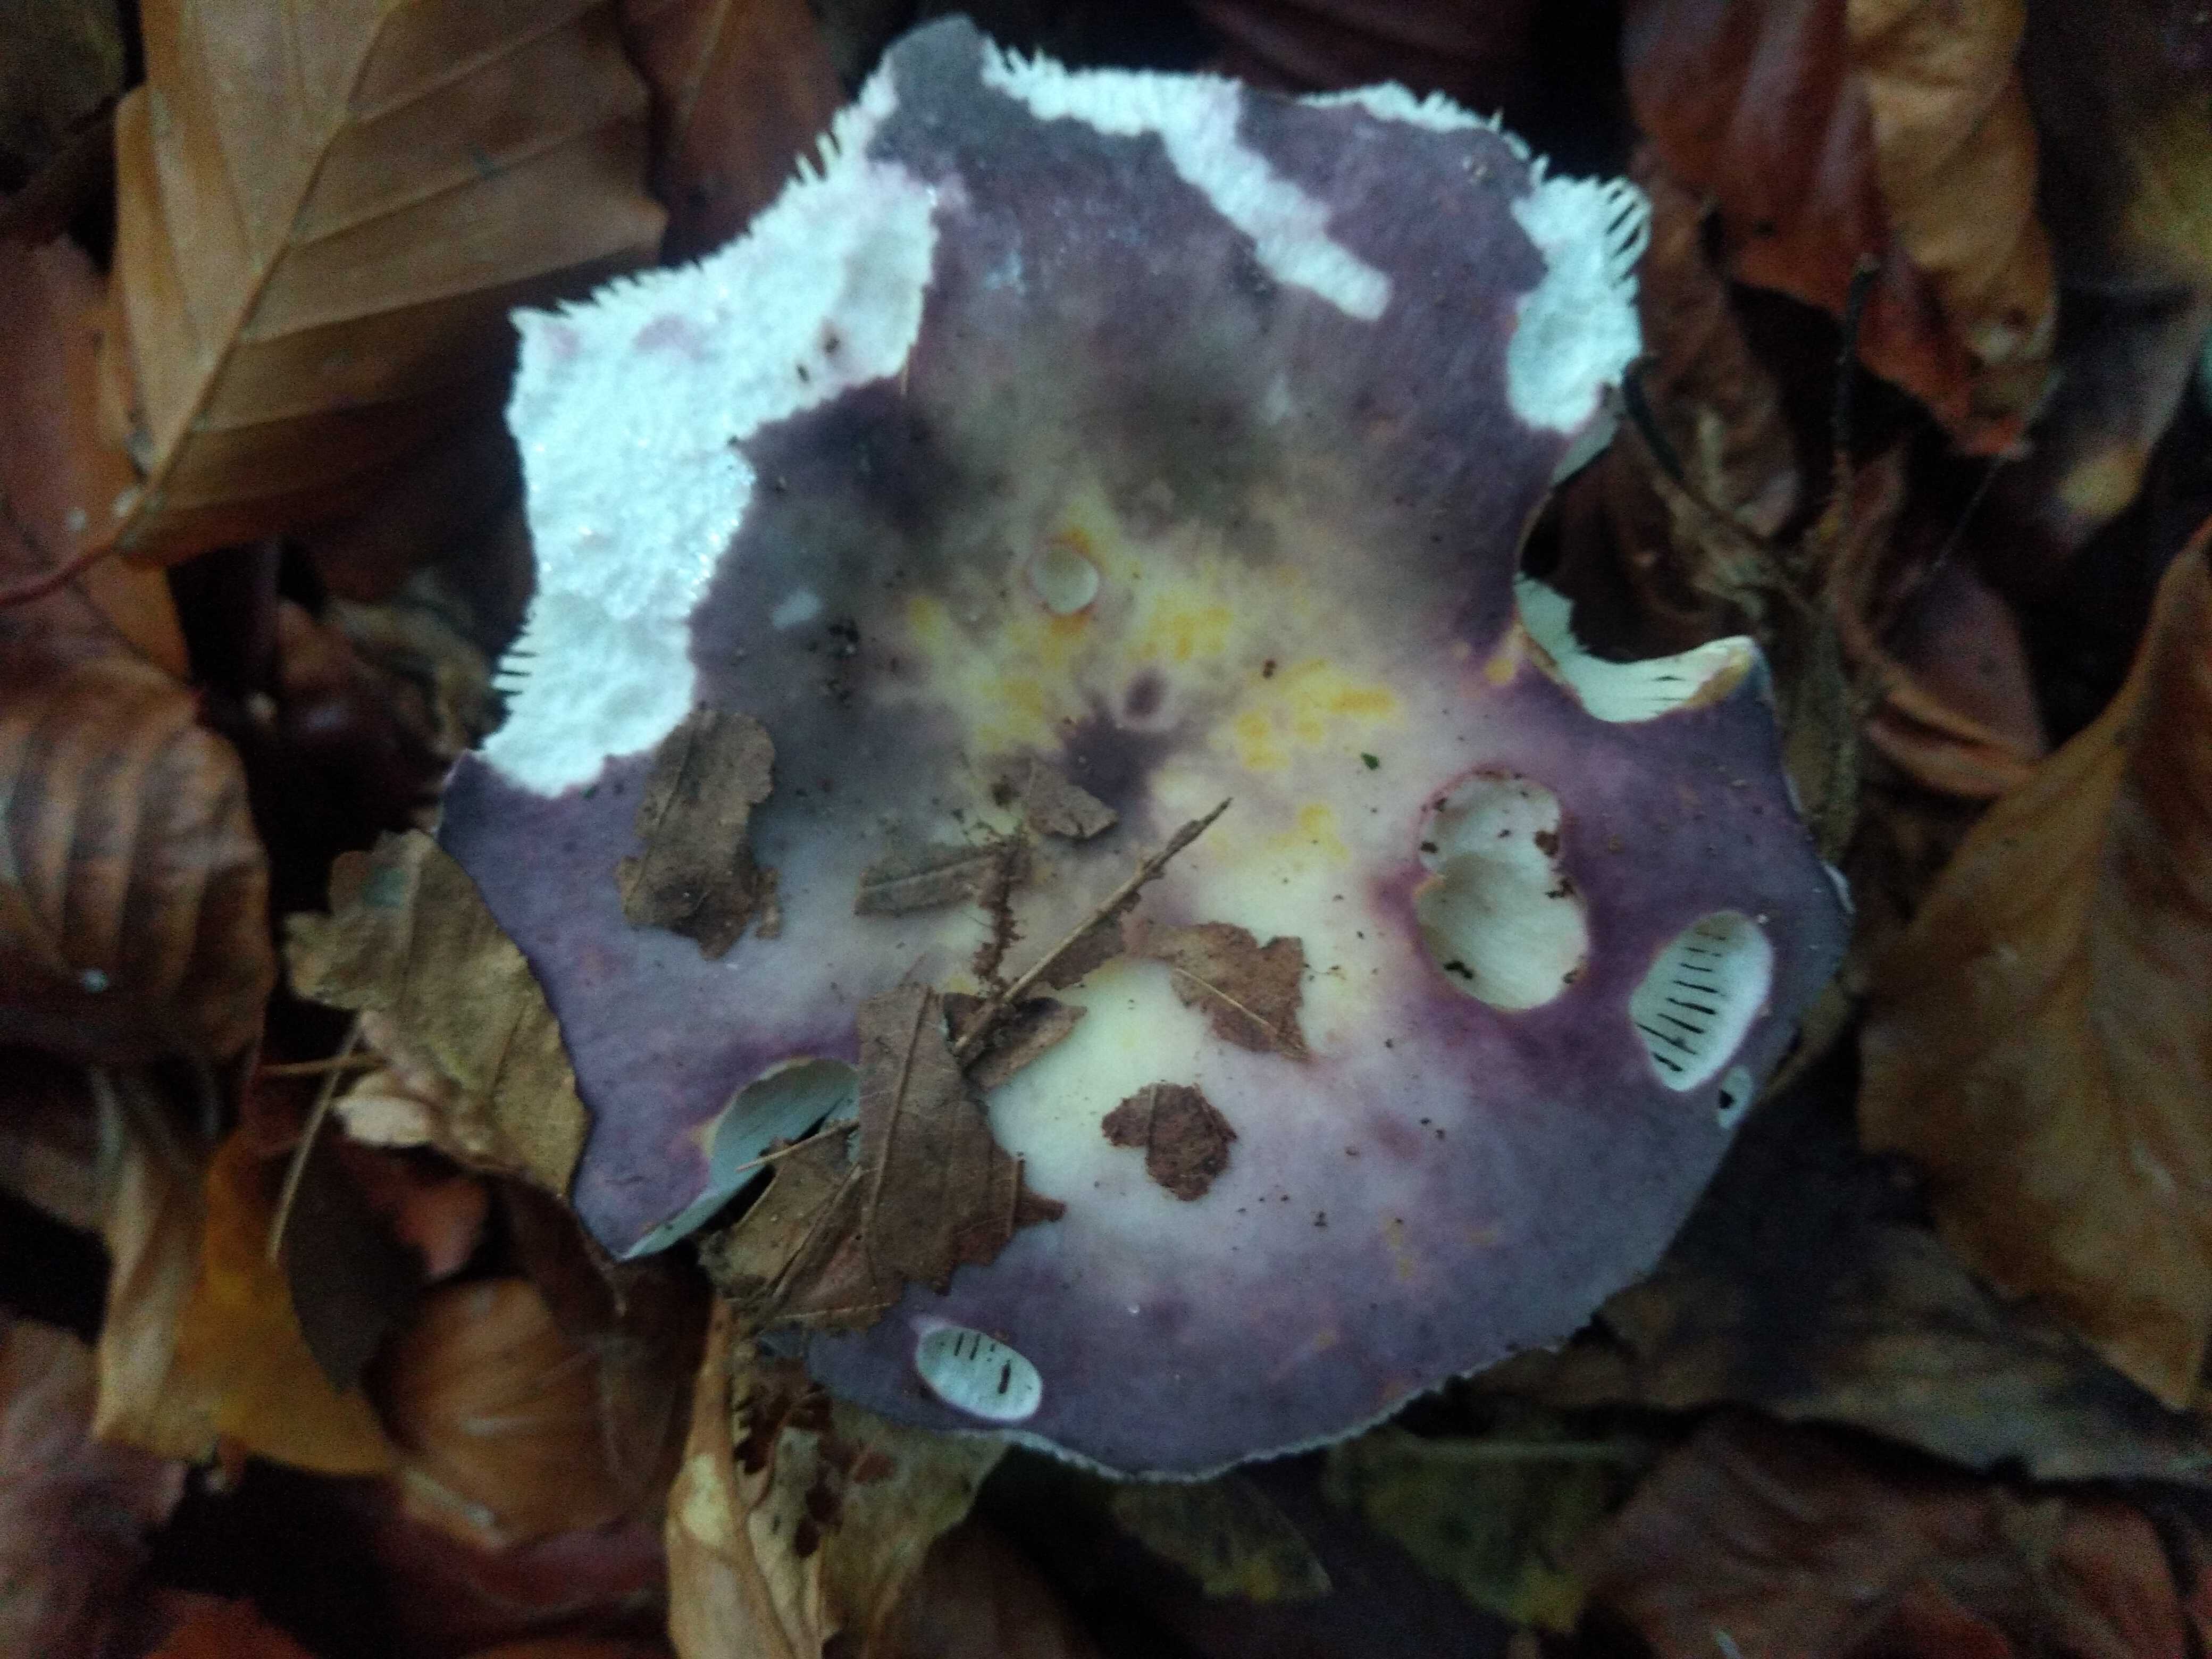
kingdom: Fungi
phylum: Basidiomycota
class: Agaricomycetes
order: Russulales
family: Russulaceae
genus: Russula
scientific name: Russula
